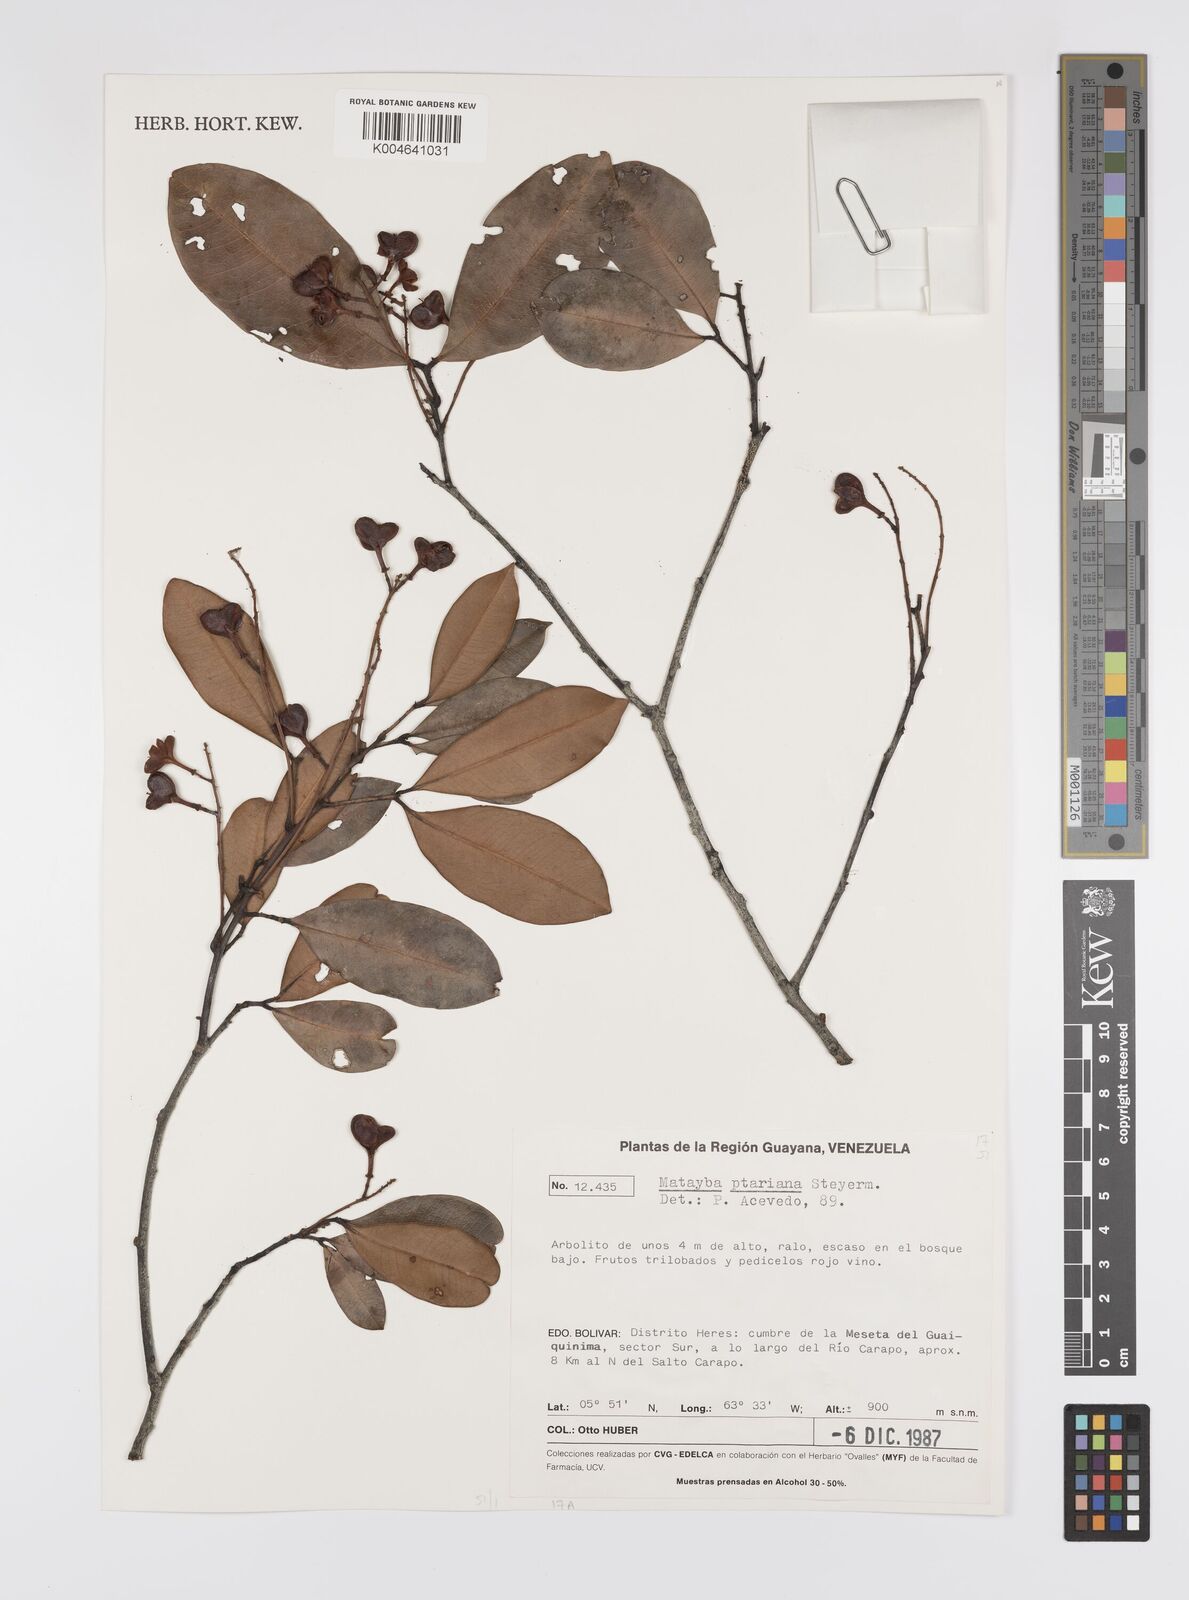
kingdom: Plantae
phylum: Tracheophyta
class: Magnoliopsida
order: Sapindales
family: Sapindaceae
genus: Matayba
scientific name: Matayba ptariana
